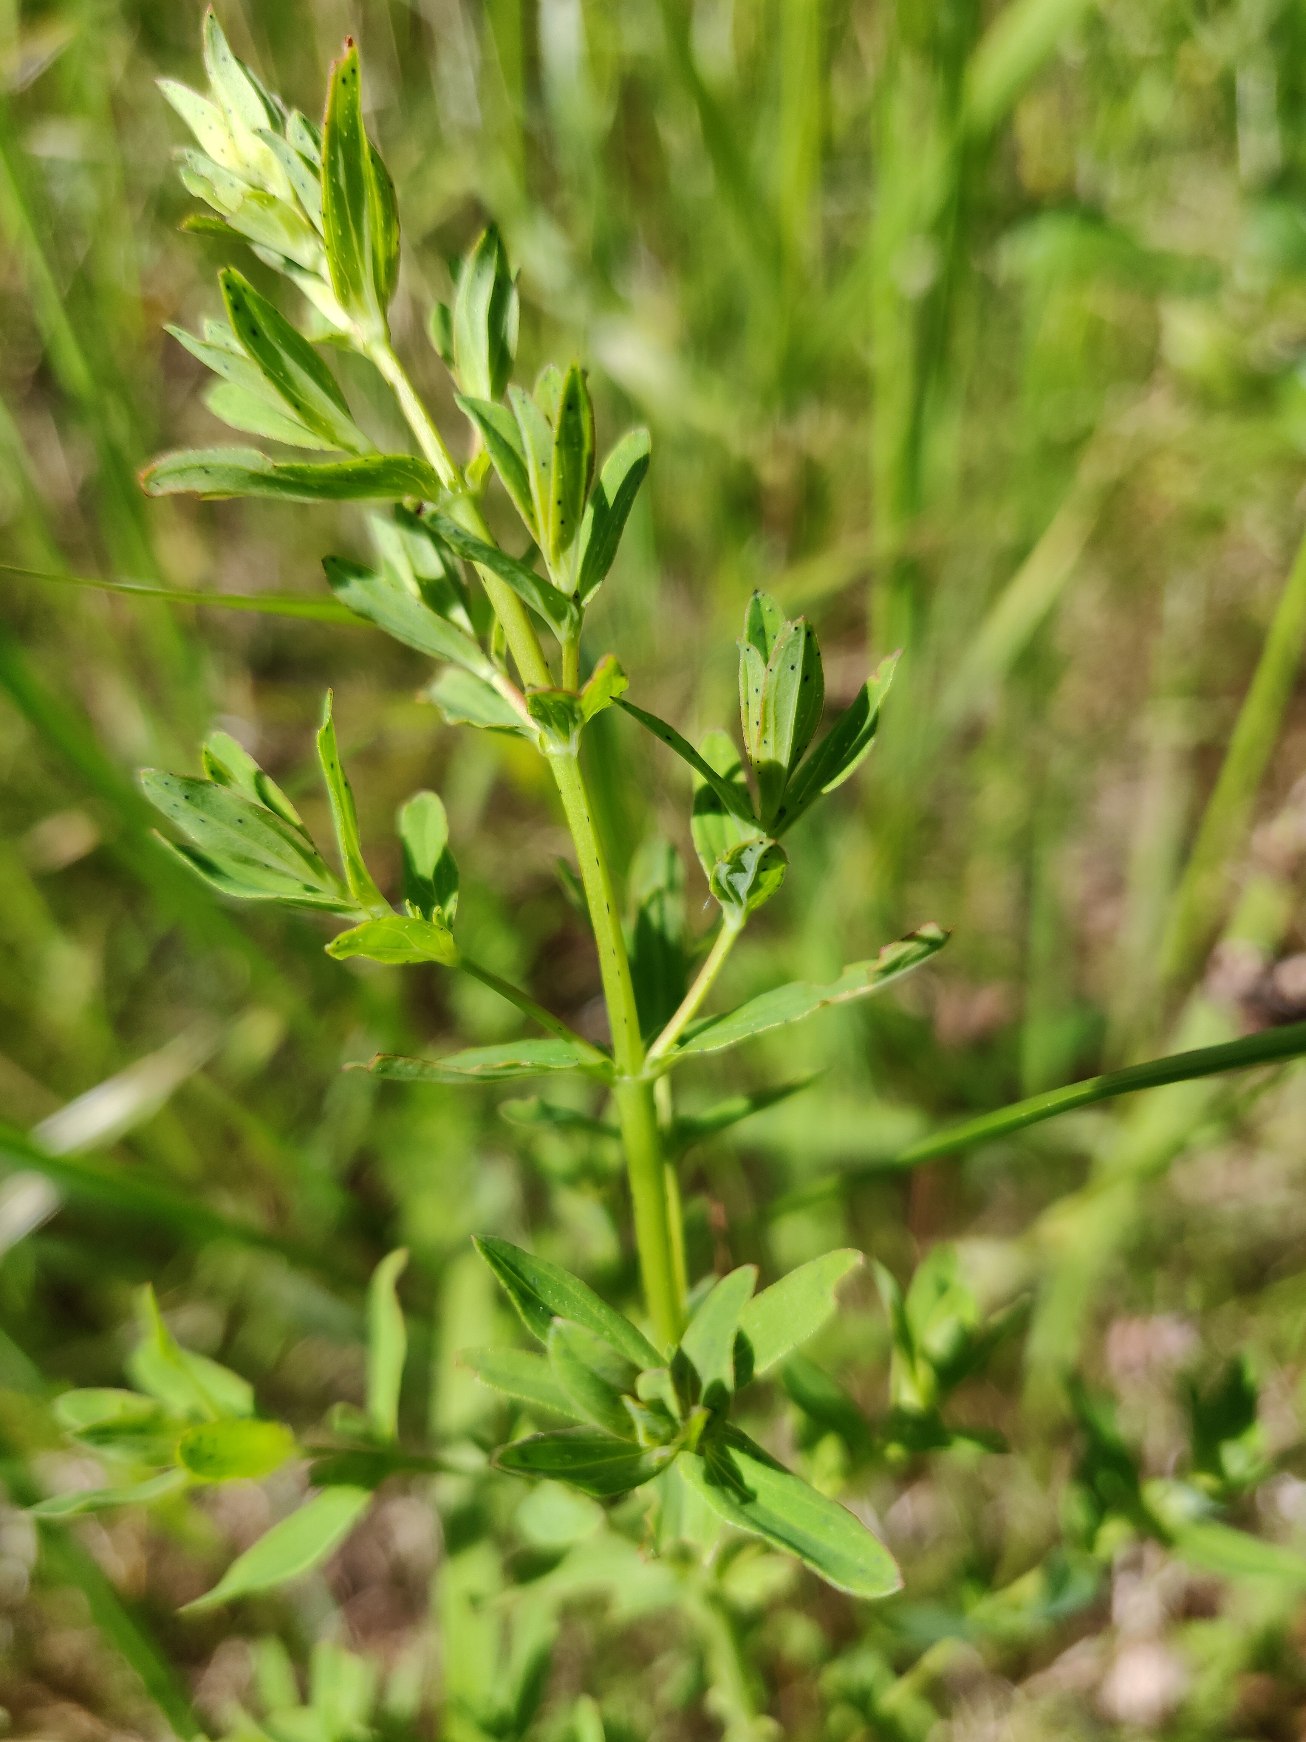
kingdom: Plantae
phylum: Tracheophyta
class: Magnoliopsida
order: Malpighiales
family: Hypericaceae
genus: Hypericum
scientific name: Hypericum perforatum
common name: Prikbladet perikon
